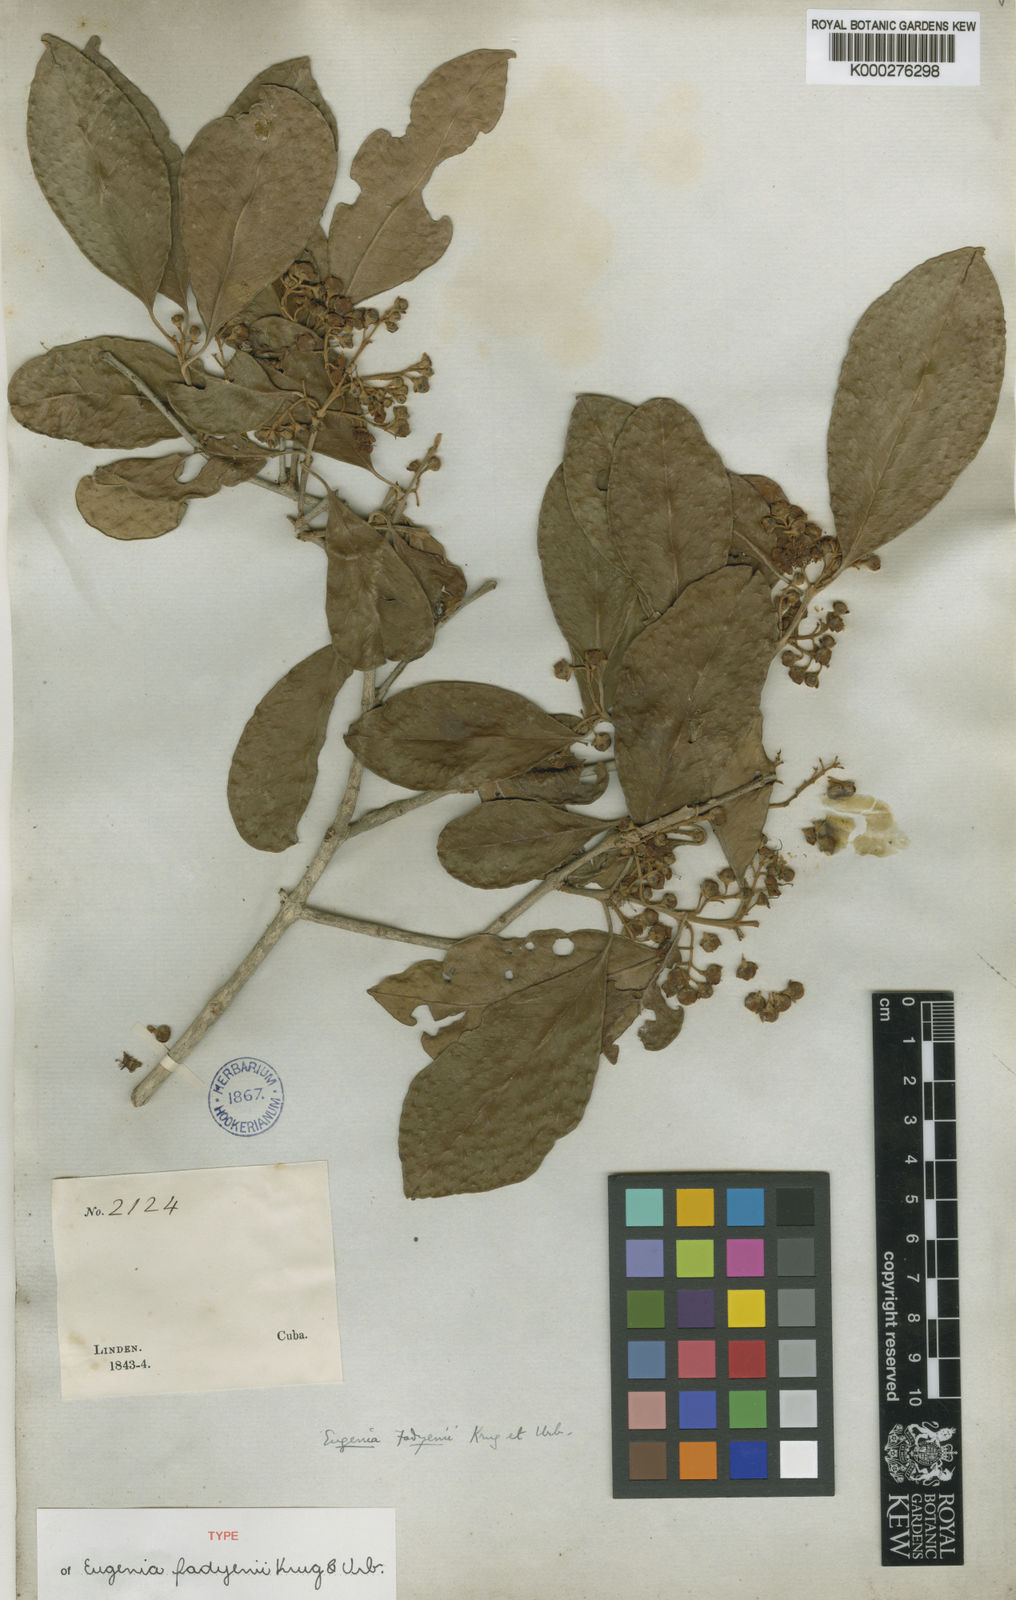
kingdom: Plantae
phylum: Tracheophyta
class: Magnoliopsida
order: Myrtales
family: Myrtaceae
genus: Eugenia
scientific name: Eugenia aeruginea
